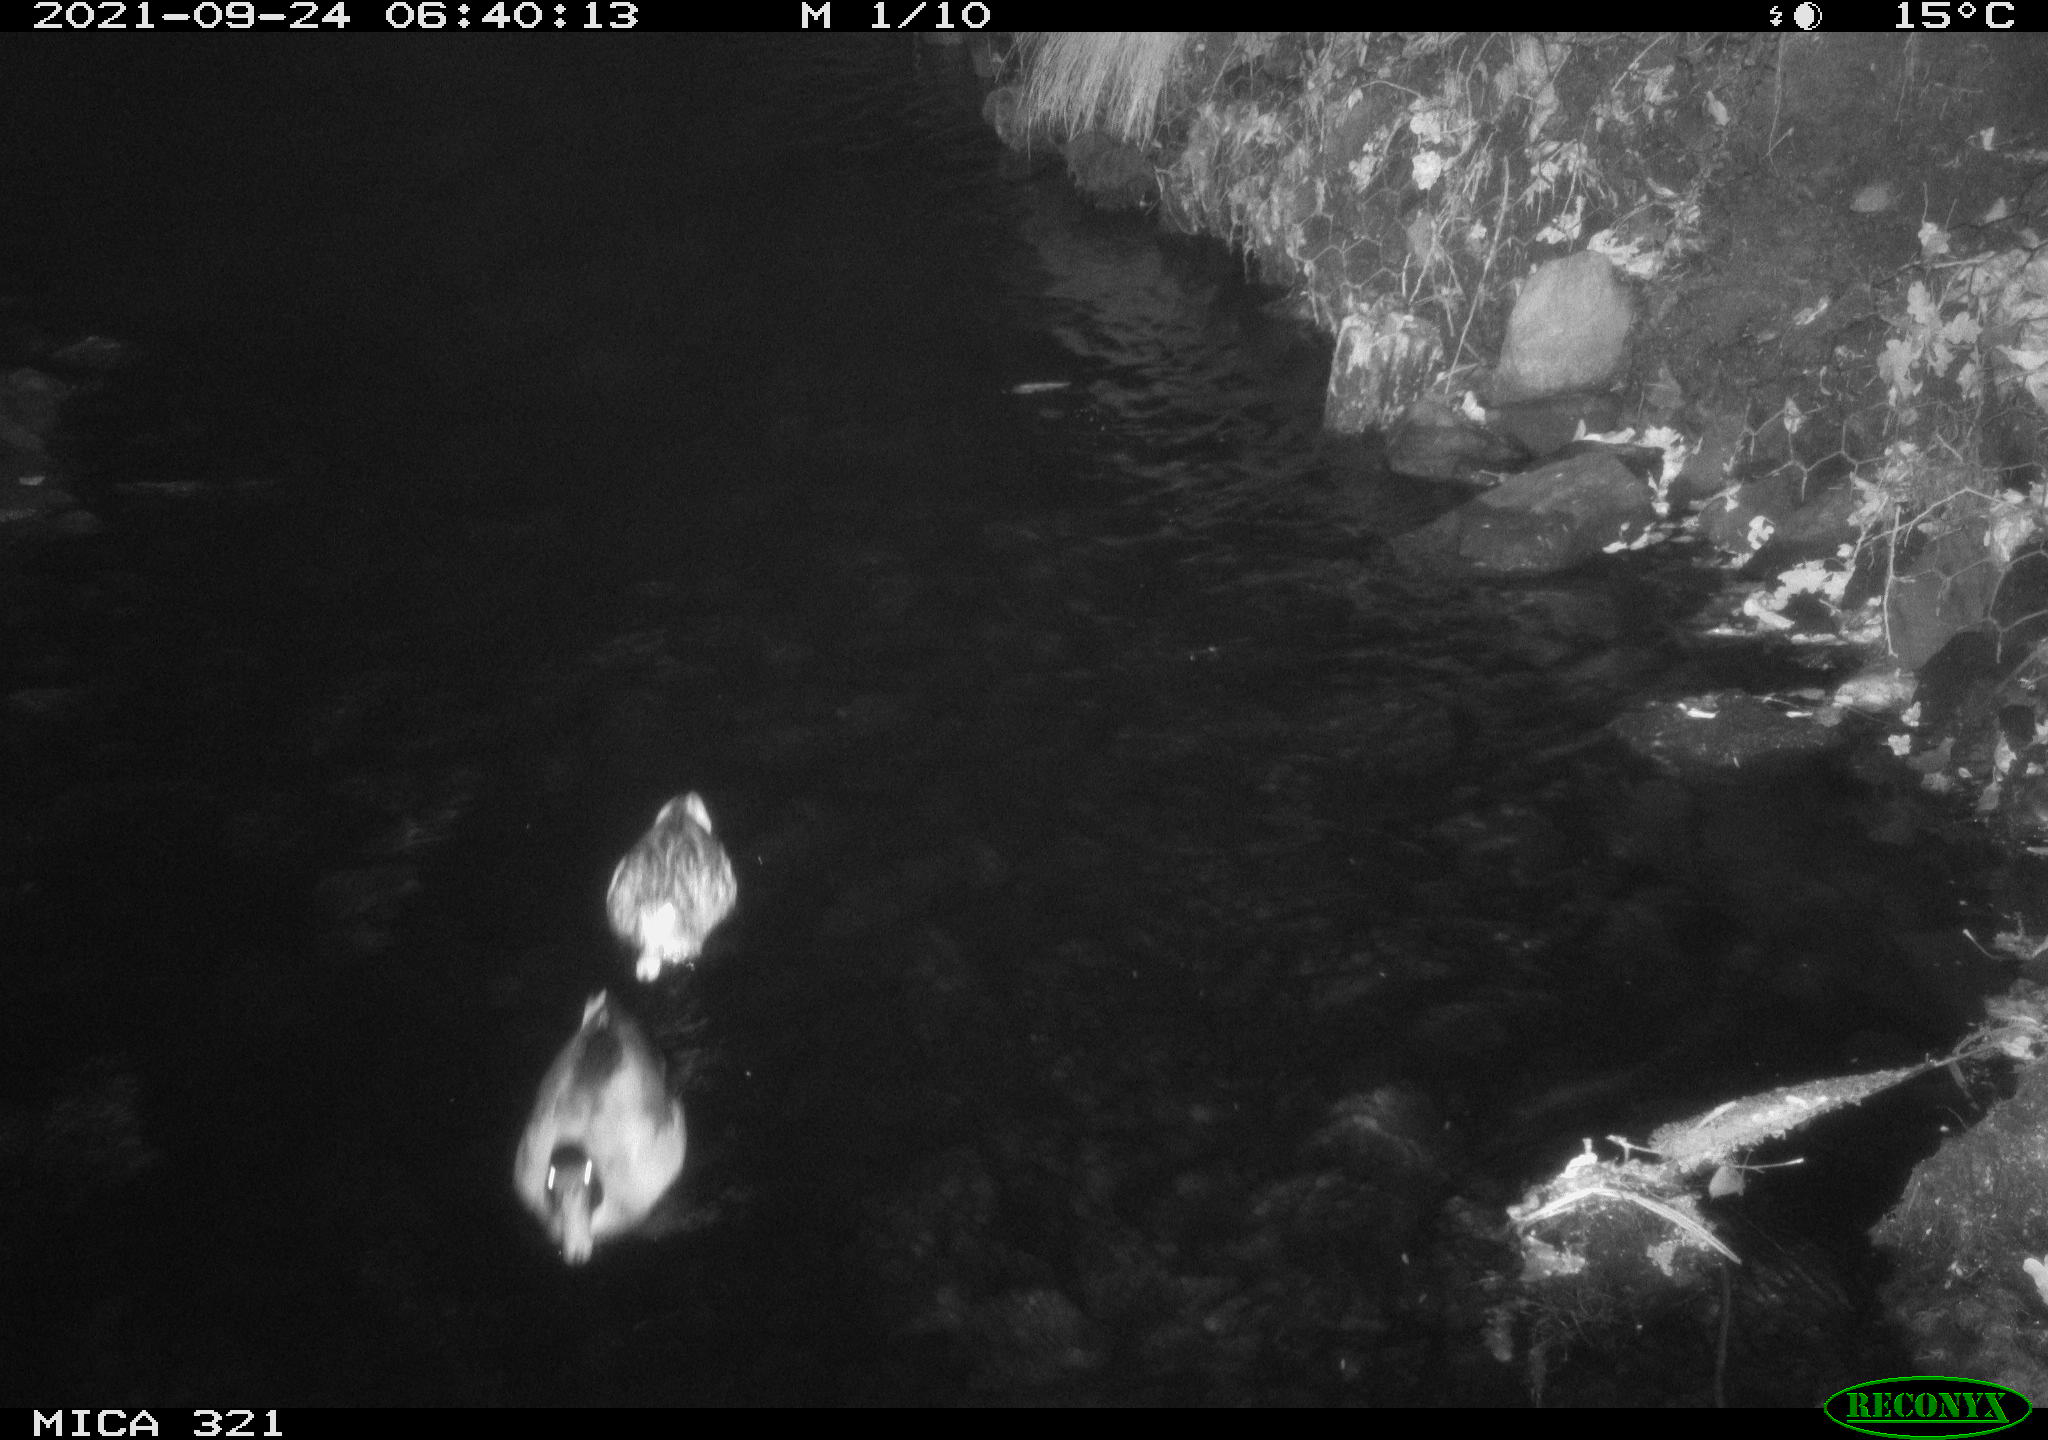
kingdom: Animalia
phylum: Chordata
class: Aves
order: Anseriformes
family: Anatidae
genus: Anas
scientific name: Anas platyrhynchos
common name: Mallard
